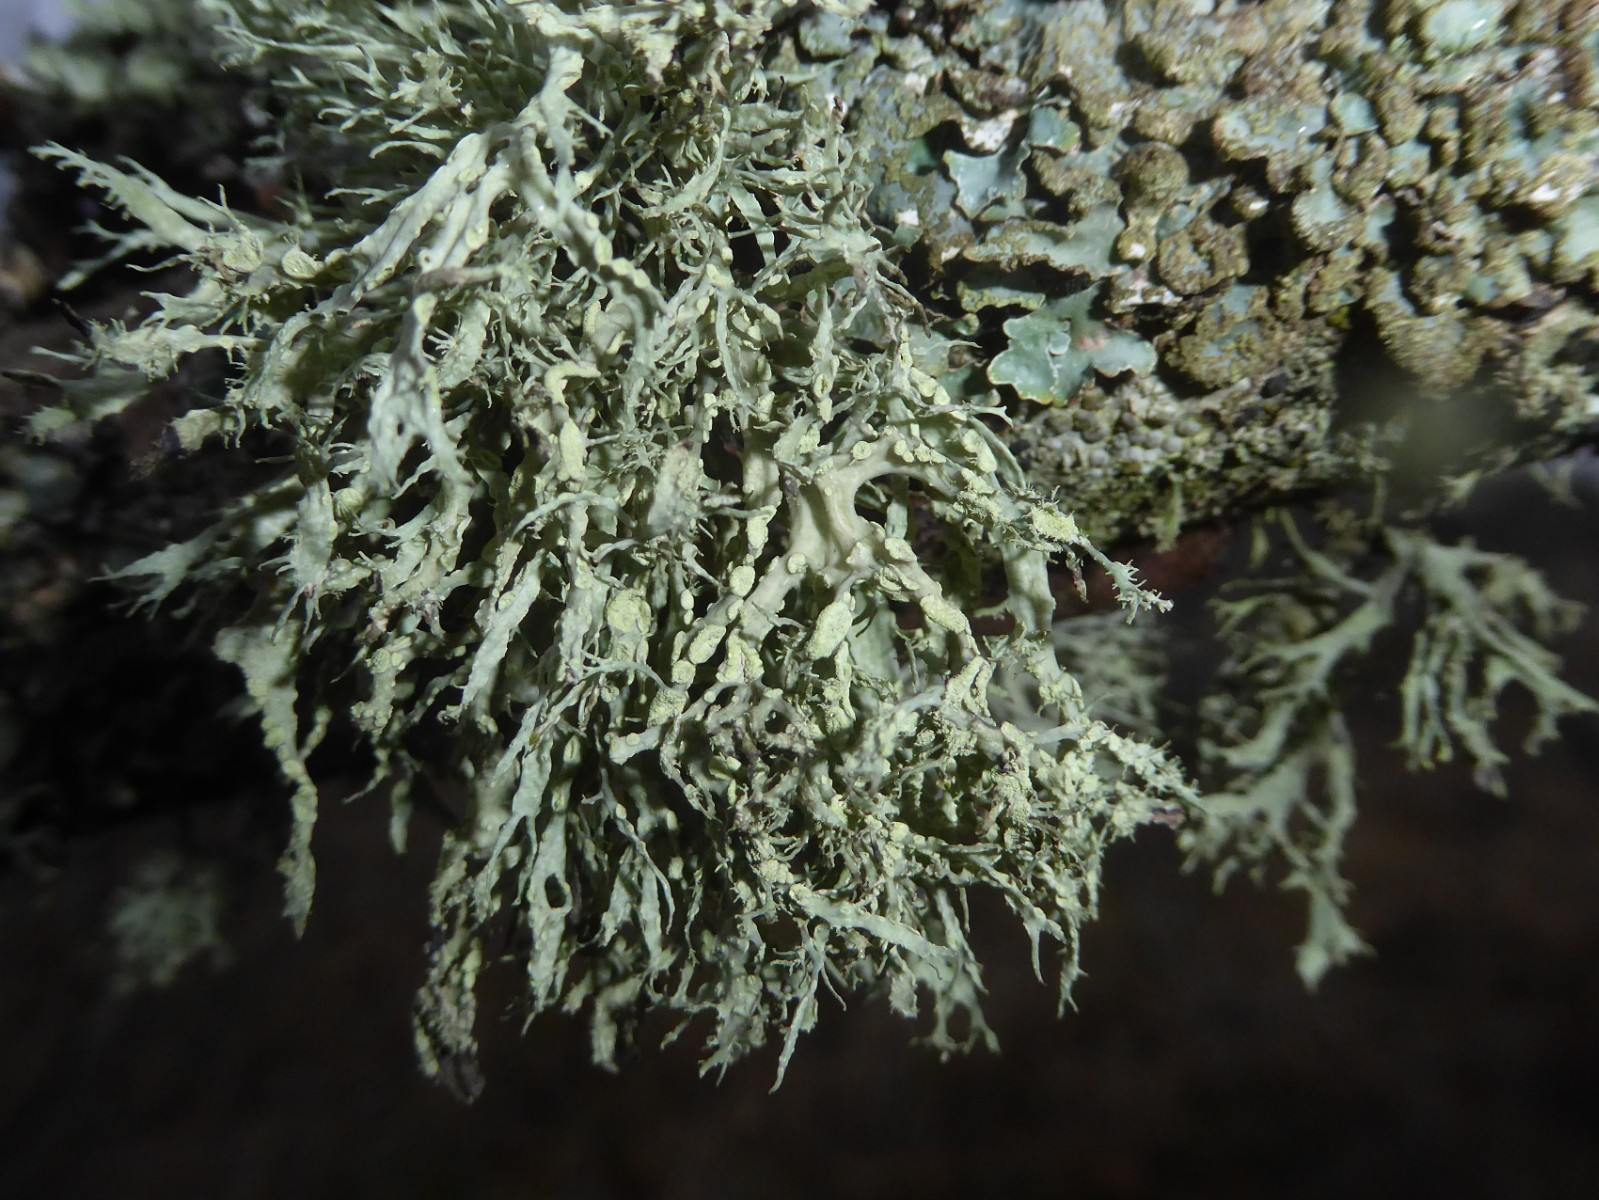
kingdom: Fungi
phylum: Ascomycota
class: Lecanoromycetes
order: Lecanorales
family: Ramalinaceae
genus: Ramalina
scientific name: Ramalina farinacea
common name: melet grenlav
